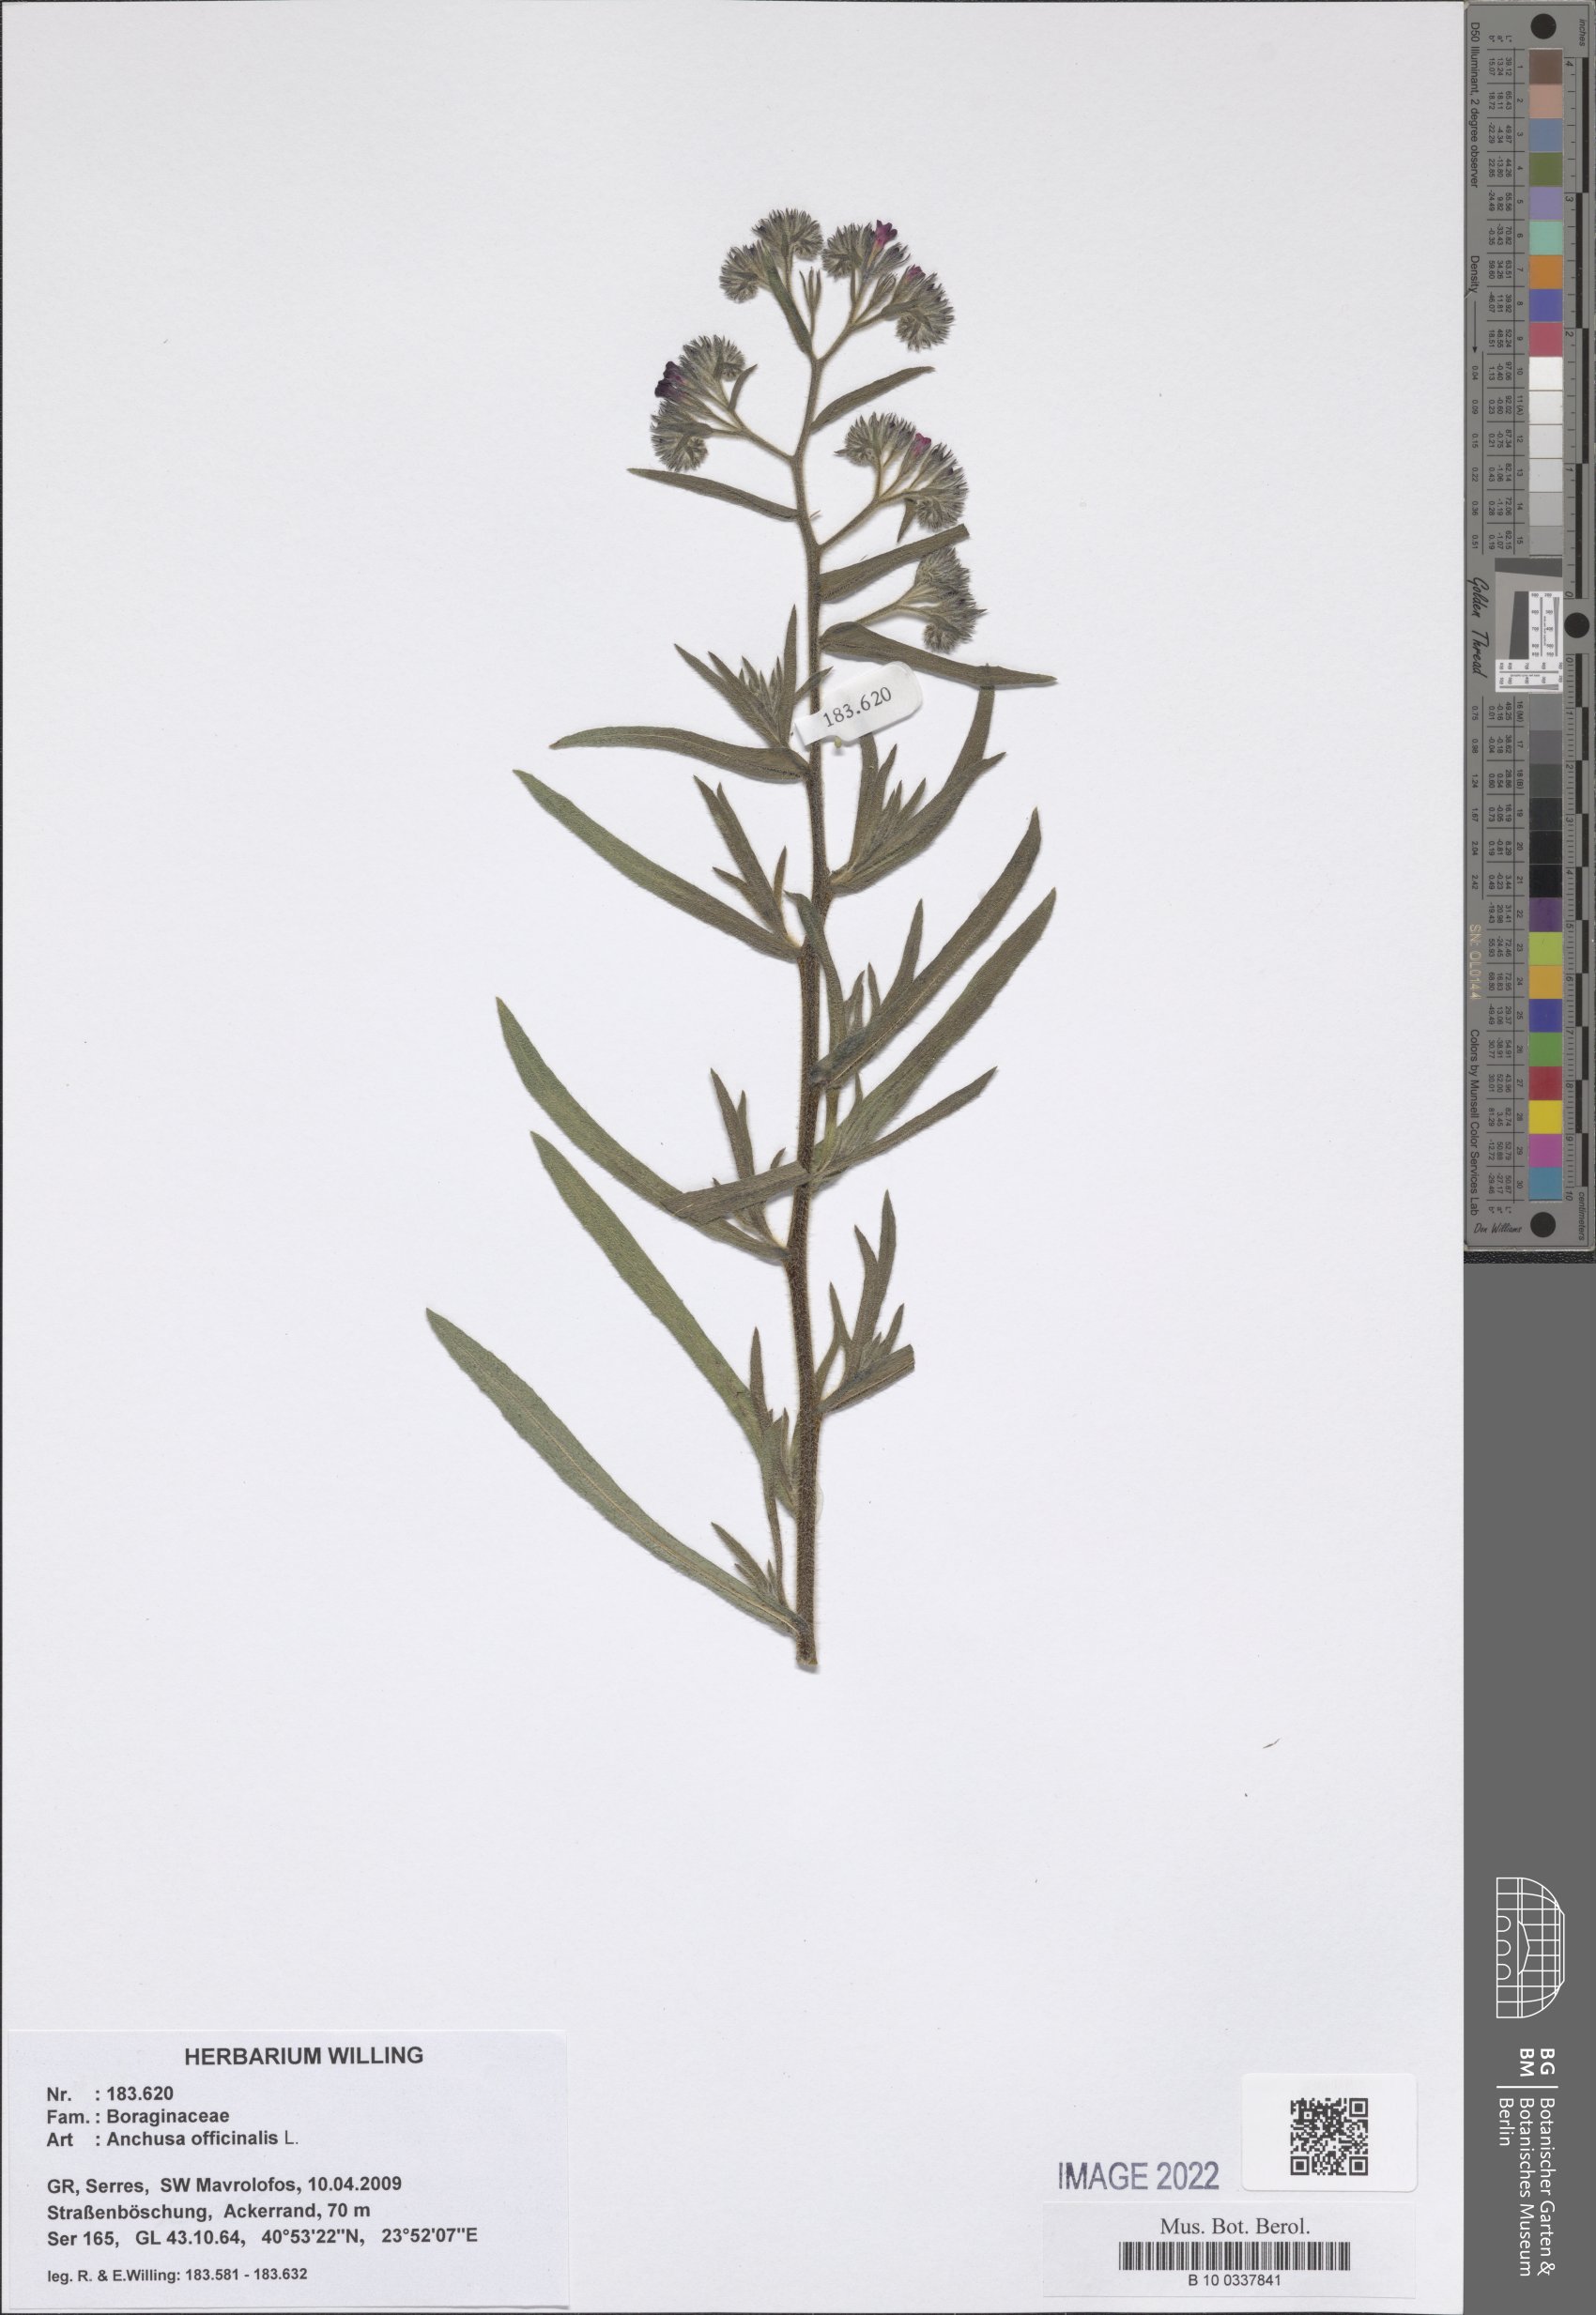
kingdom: Plantae
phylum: Tracheophyta
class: Magnoliopsida
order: Boraginales
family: Boraginaceae
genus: Anchusa
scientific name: Anchusa officinalis
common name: Alkanet
